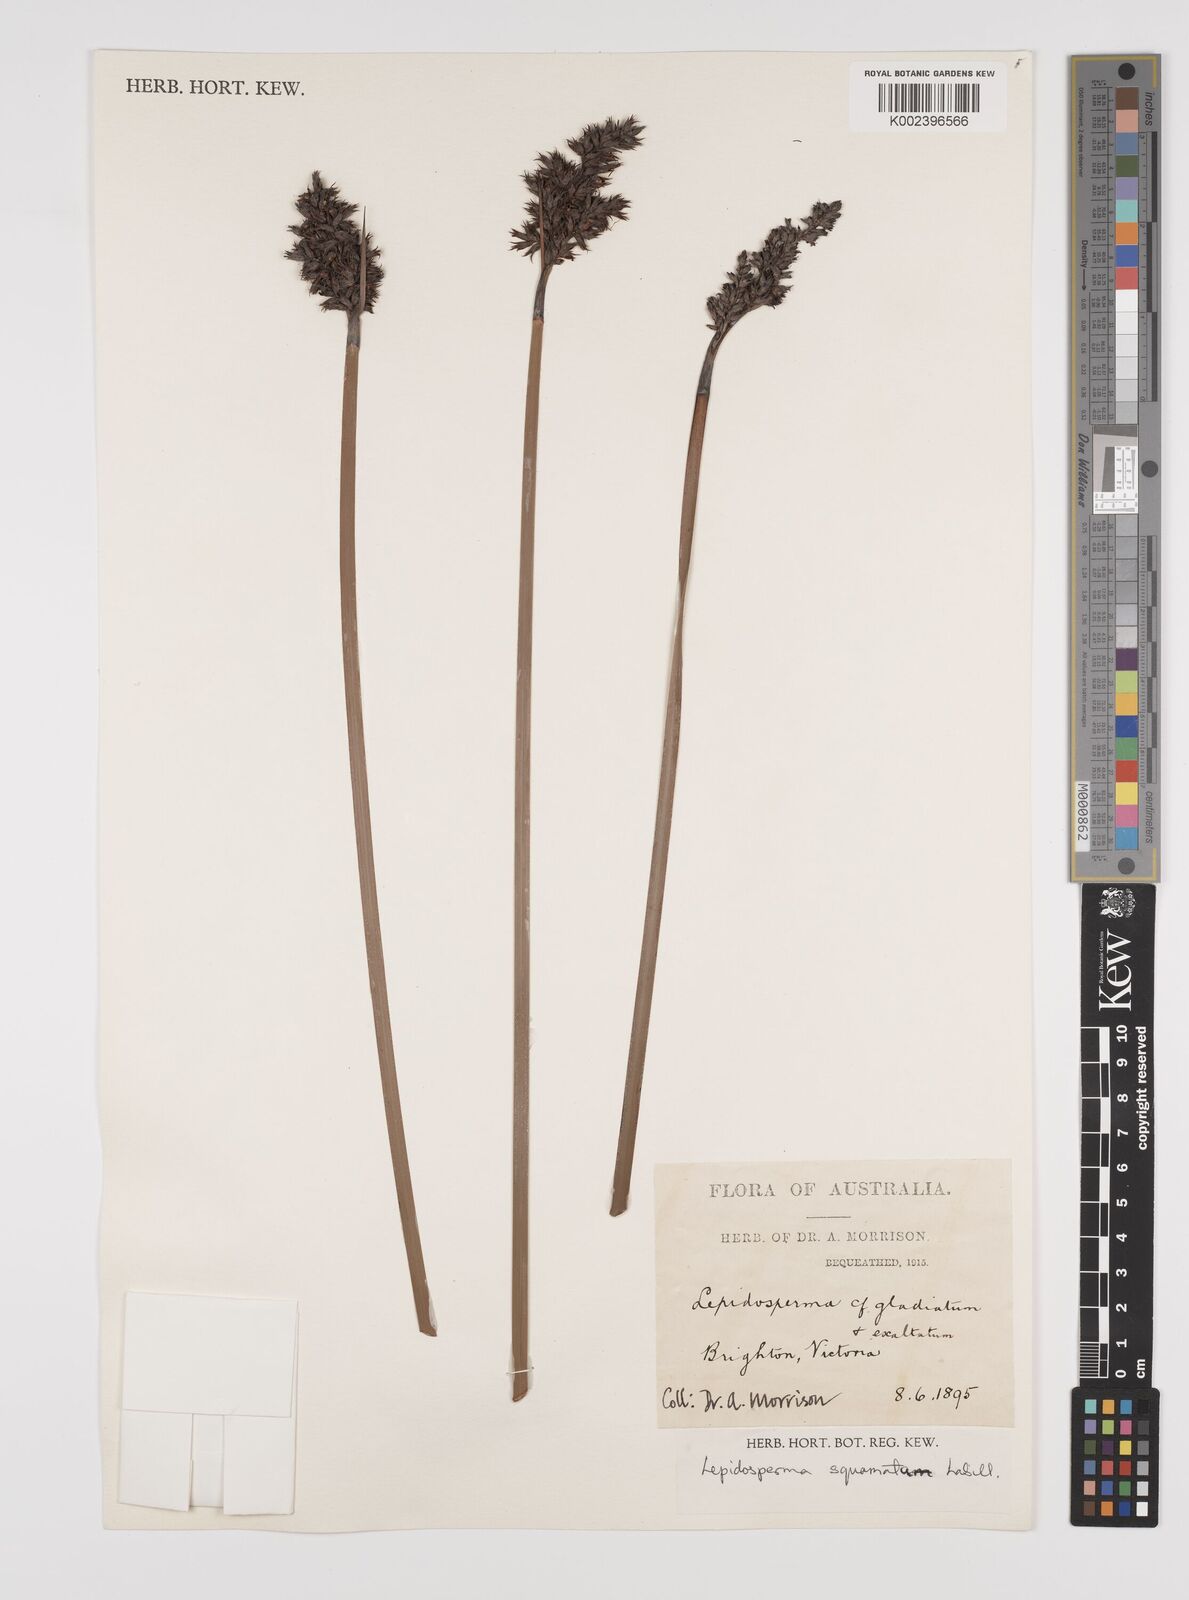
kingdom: Plantae
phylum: Tracheophyta
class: Liliopsida
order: Poales
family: Cyperaceae
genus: Lepidosperma
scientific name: Lepidosperma concavum
